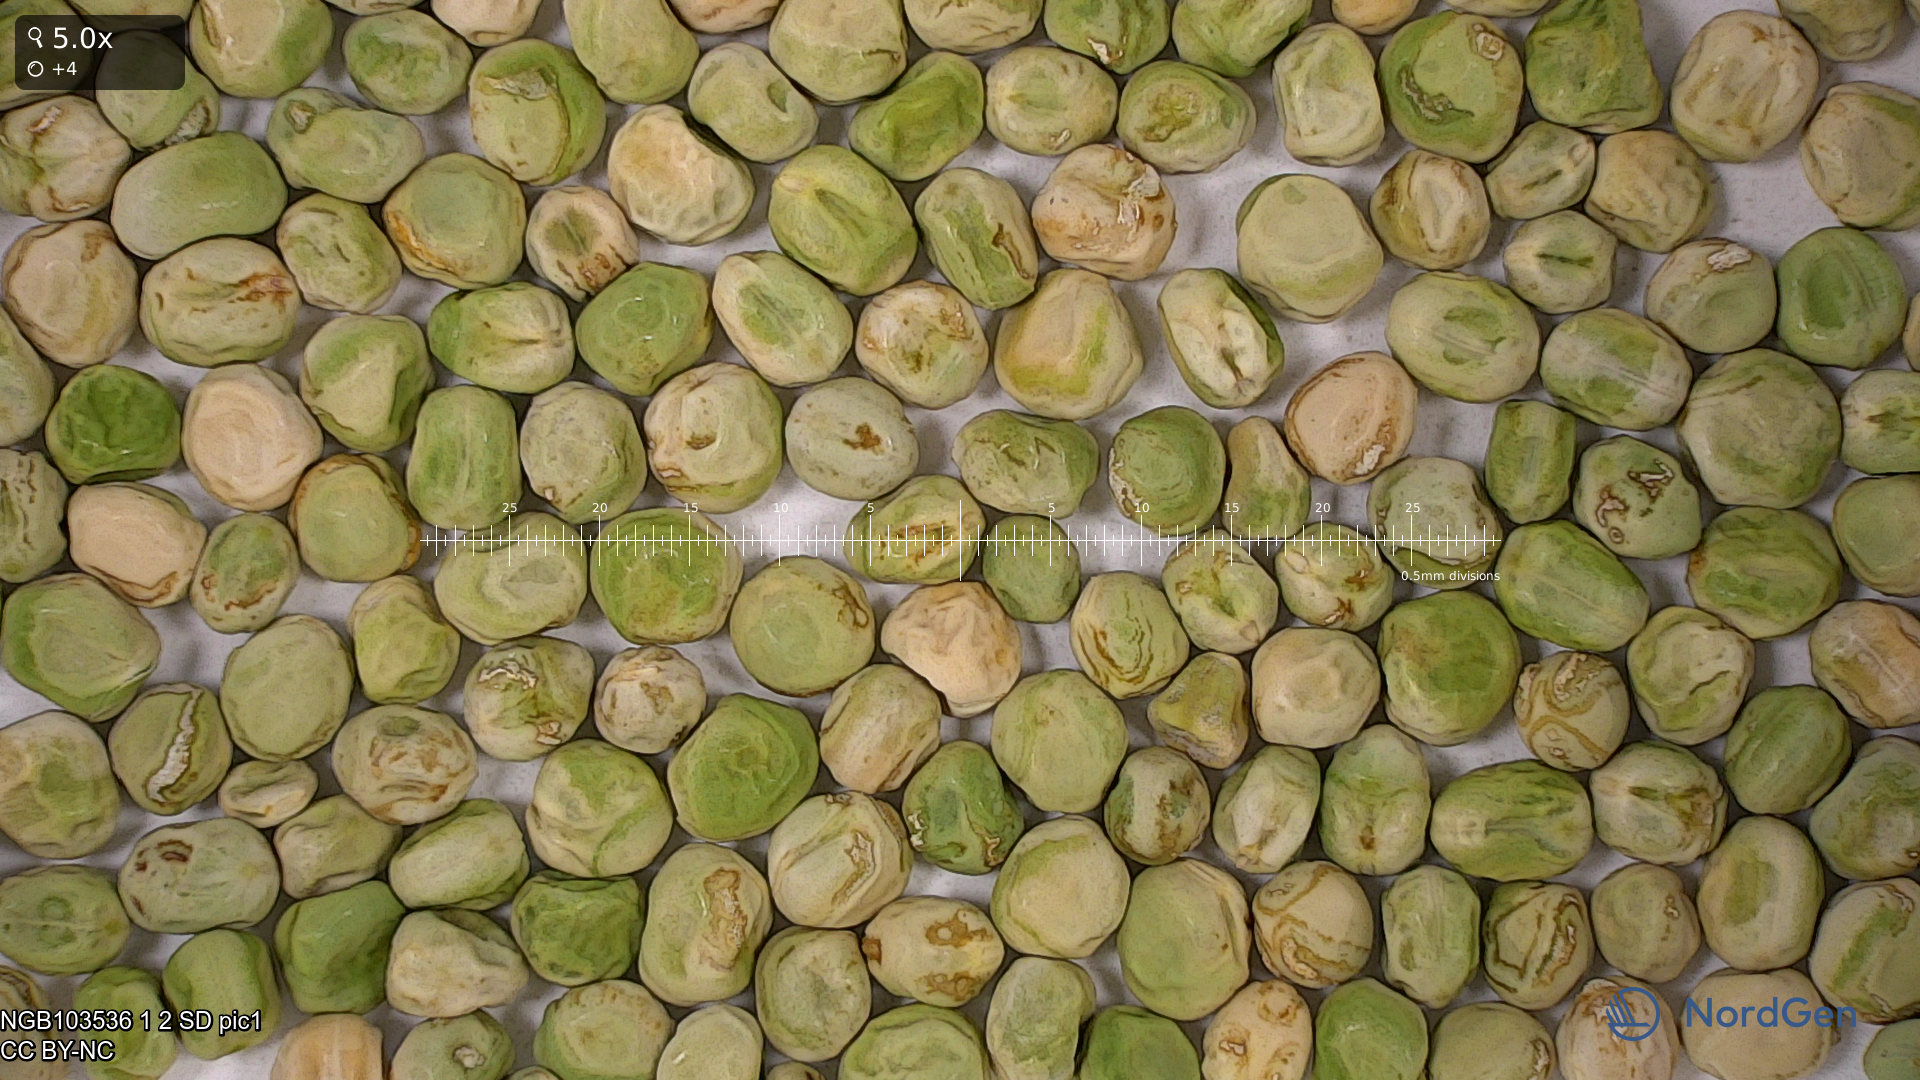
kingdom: Plantae
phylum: Tracheophyta
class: Magnoliopsida
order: Fabales
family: Fabaceae
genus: Lathyrus
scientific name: Lathyrus oleraceus
